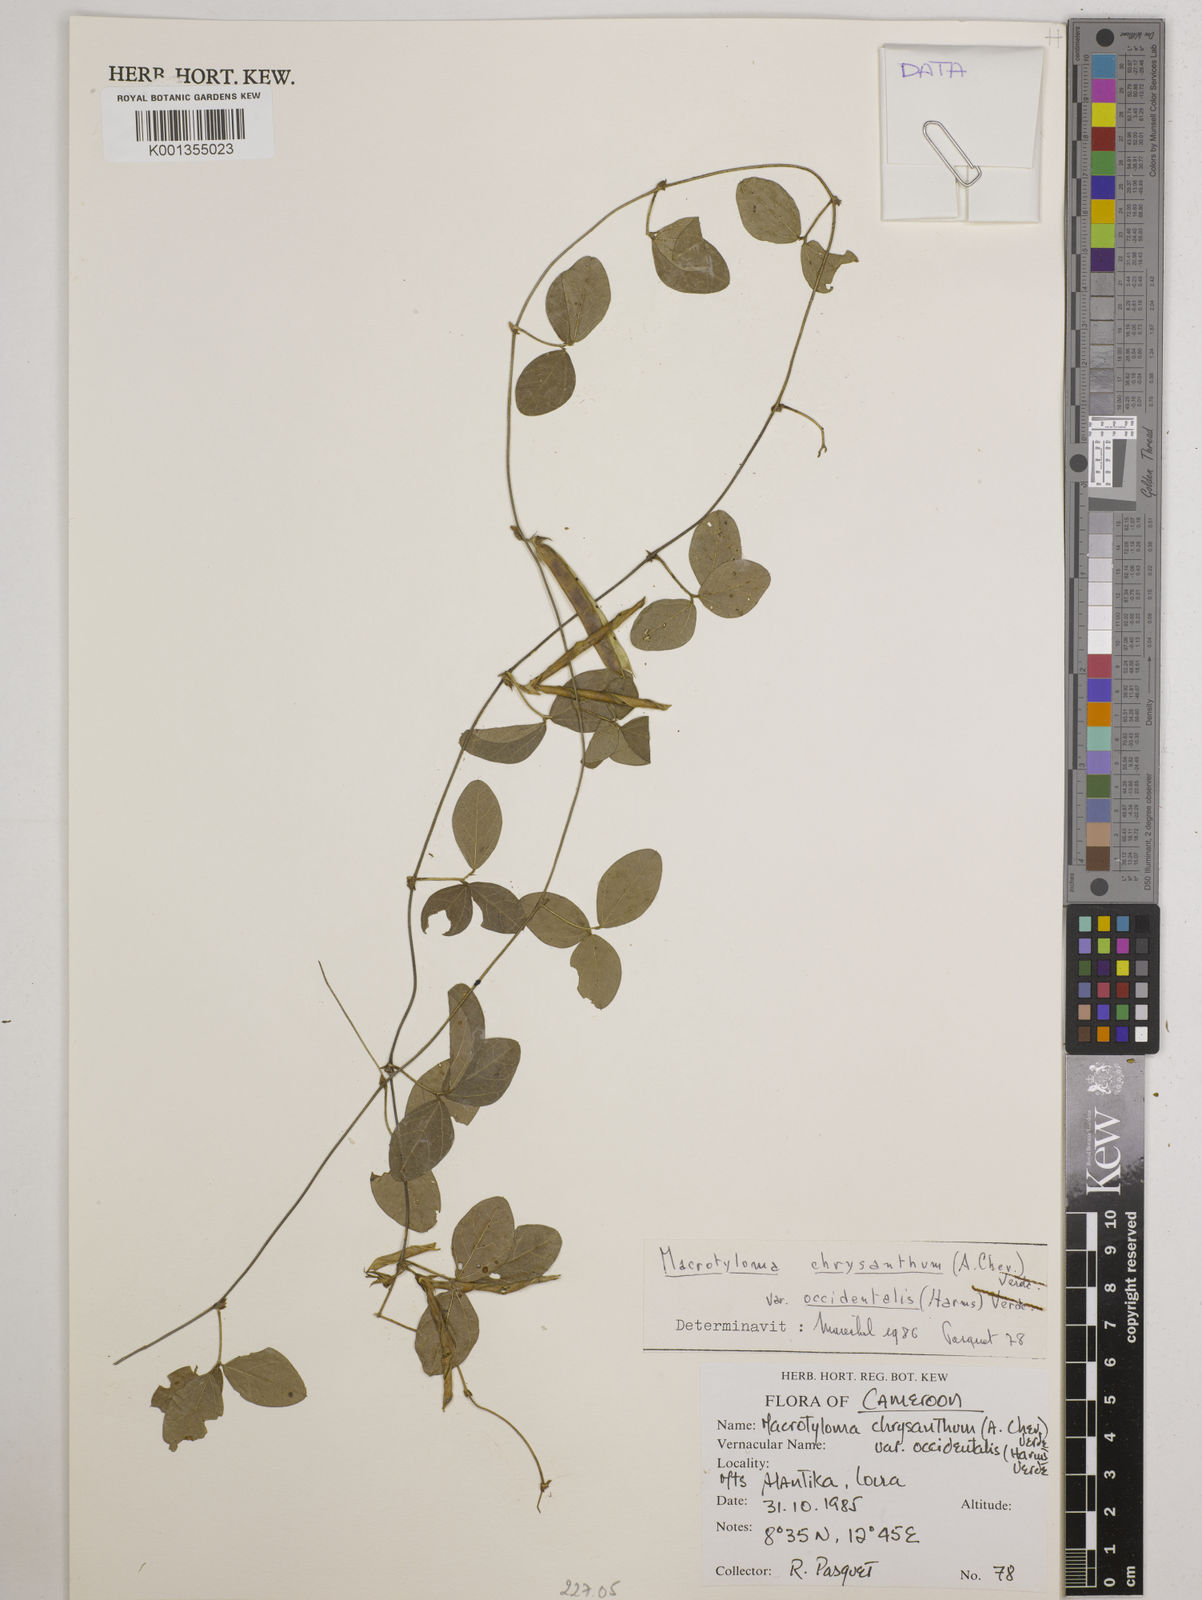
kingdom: Plantae
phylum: Tracheophyta
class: Magnoliopsida
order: Fabales
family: Fabaceae
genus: Macrotyloma
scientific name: Macrotyloma
